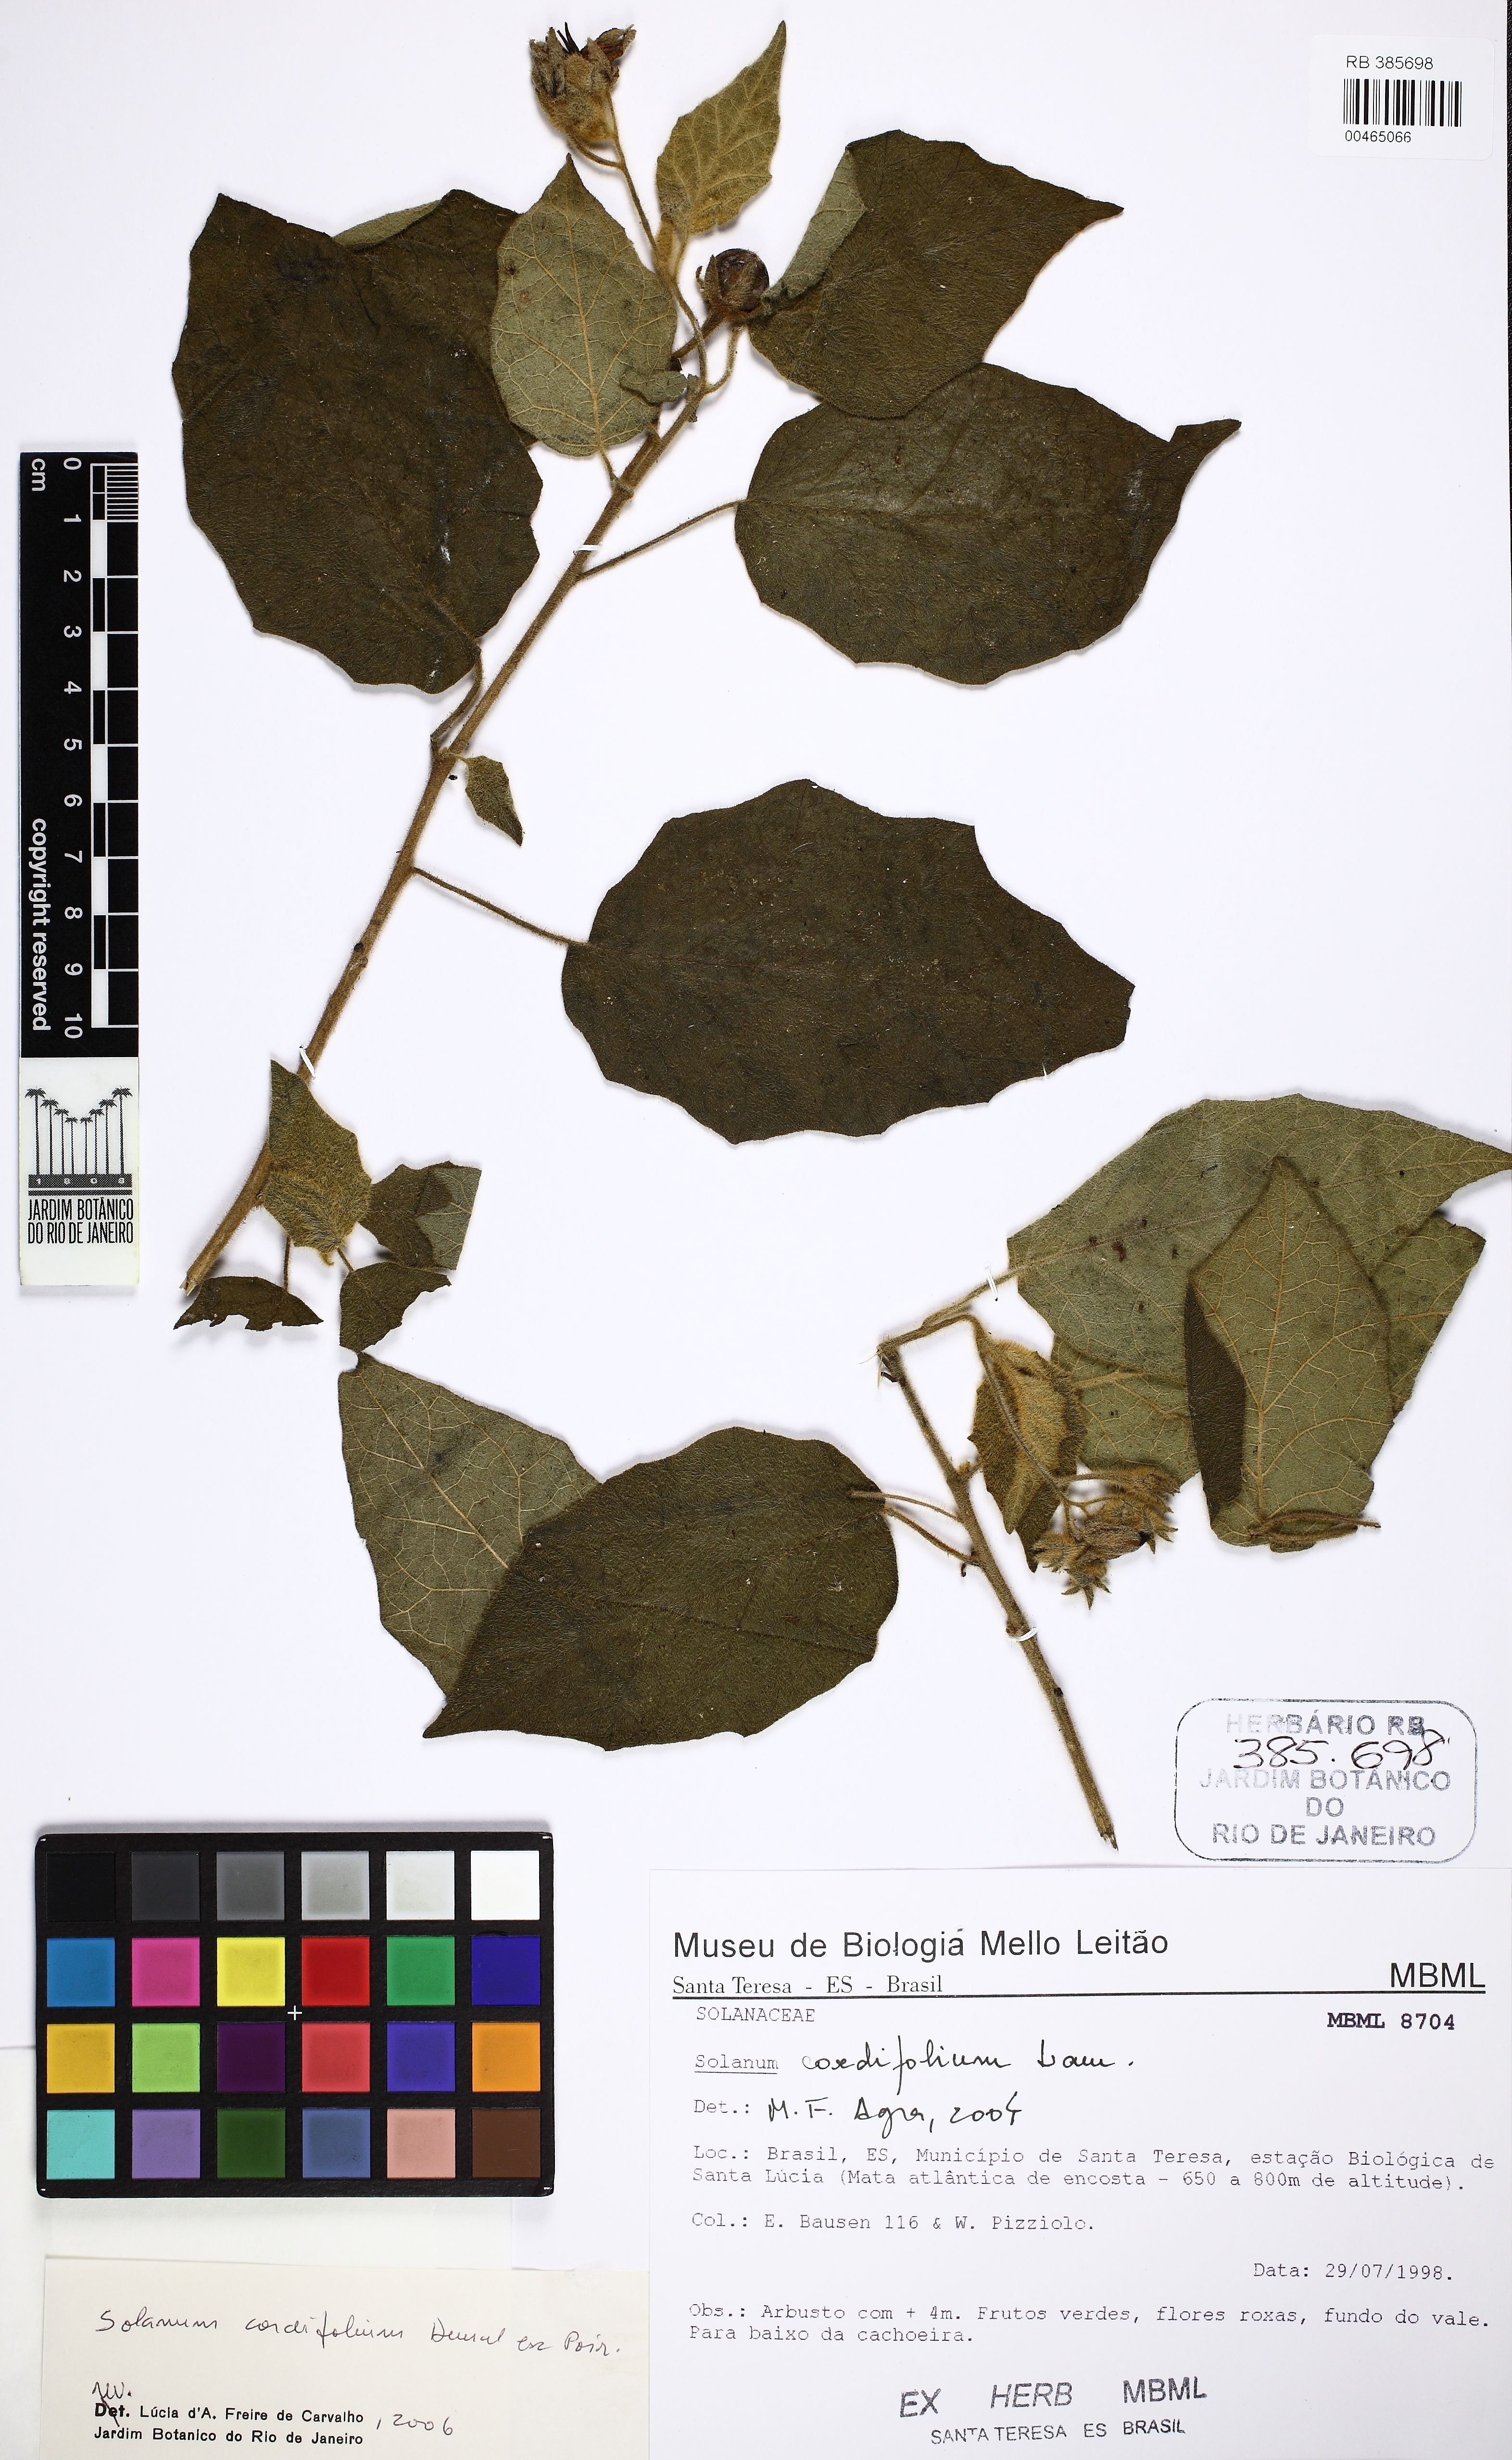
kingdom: Plantae
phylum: Tracheophyta
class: Magnoliopsida
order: Solanales
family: Solanaceae
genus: Solanum
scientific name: Solanum cordifolium
